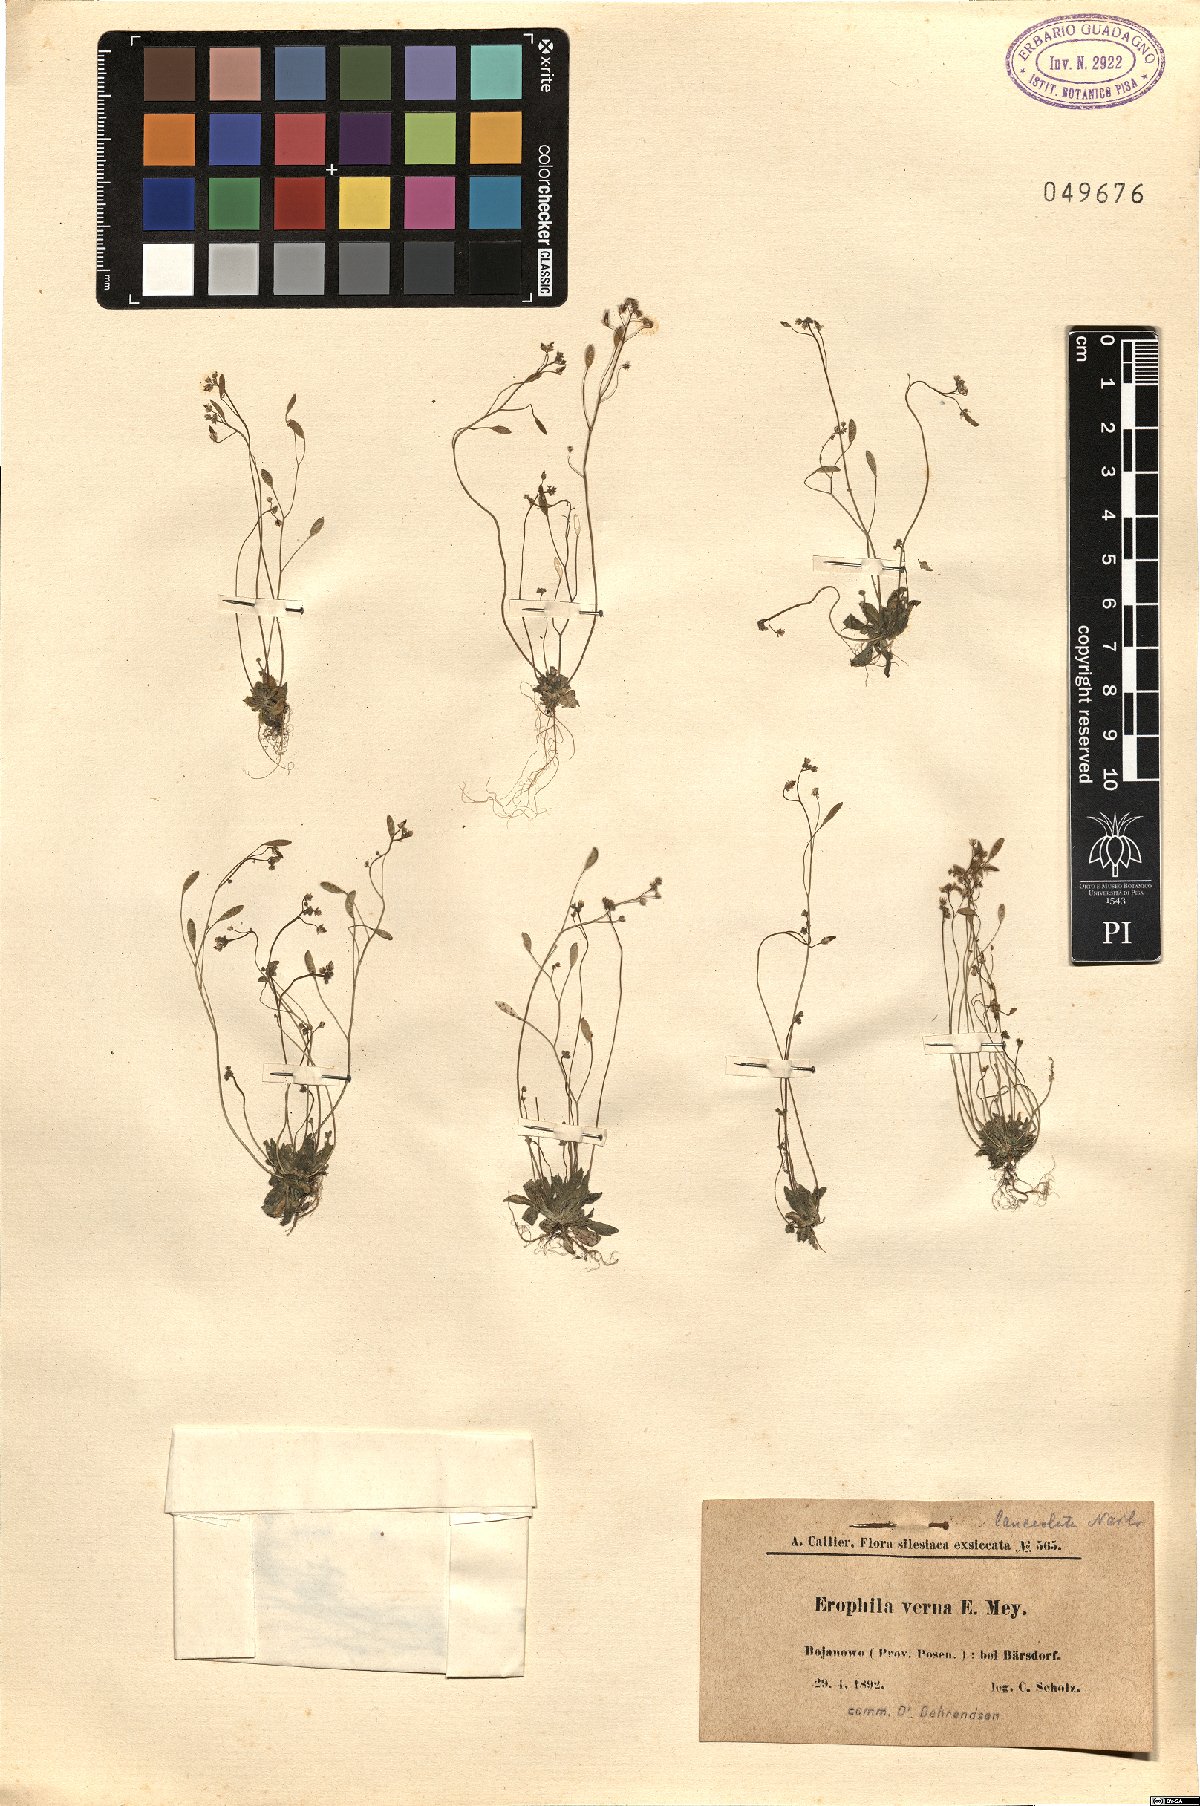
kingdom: Plantae
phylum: Tracheophyta
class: Magnoliopsida
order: Brassicales
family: Brassicaceae
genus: Draba
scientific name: Draba verna
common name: Spring draba
